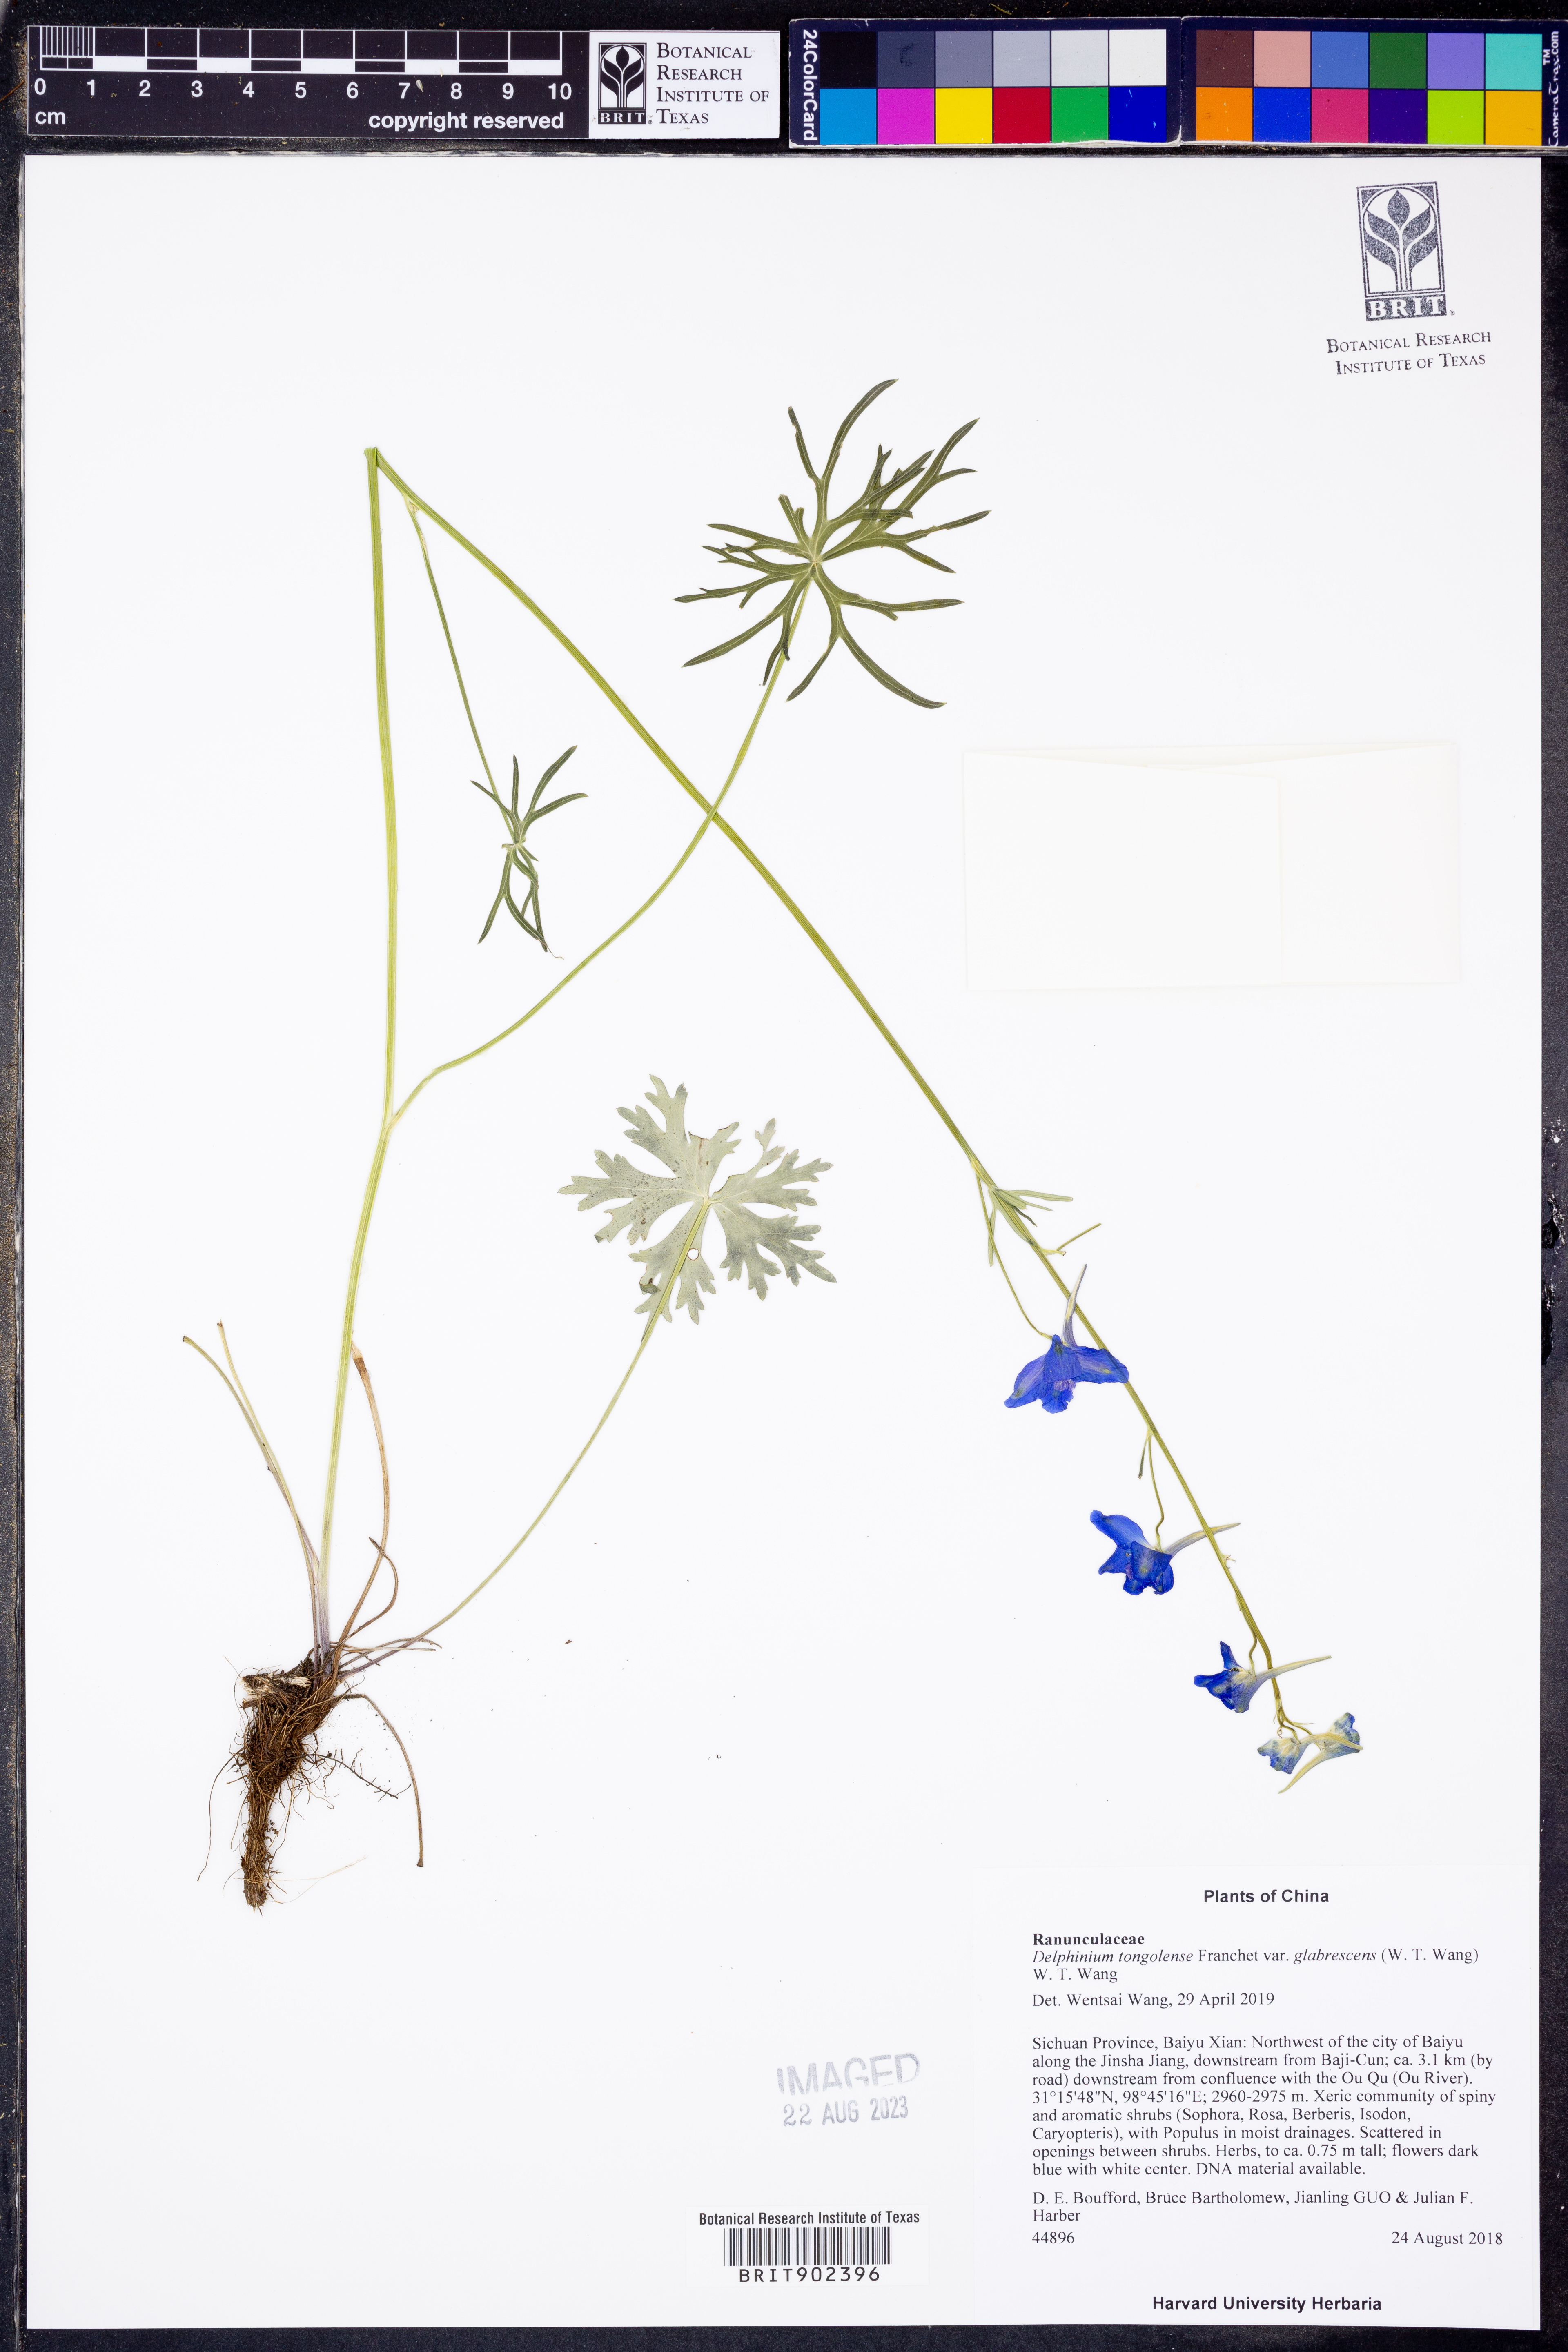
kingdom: Plantae
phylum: Tracheophyta
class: Magnoliopsida
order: Ranunculales
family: Ranunculaceae
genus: Delphinium
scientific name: Delphinium
